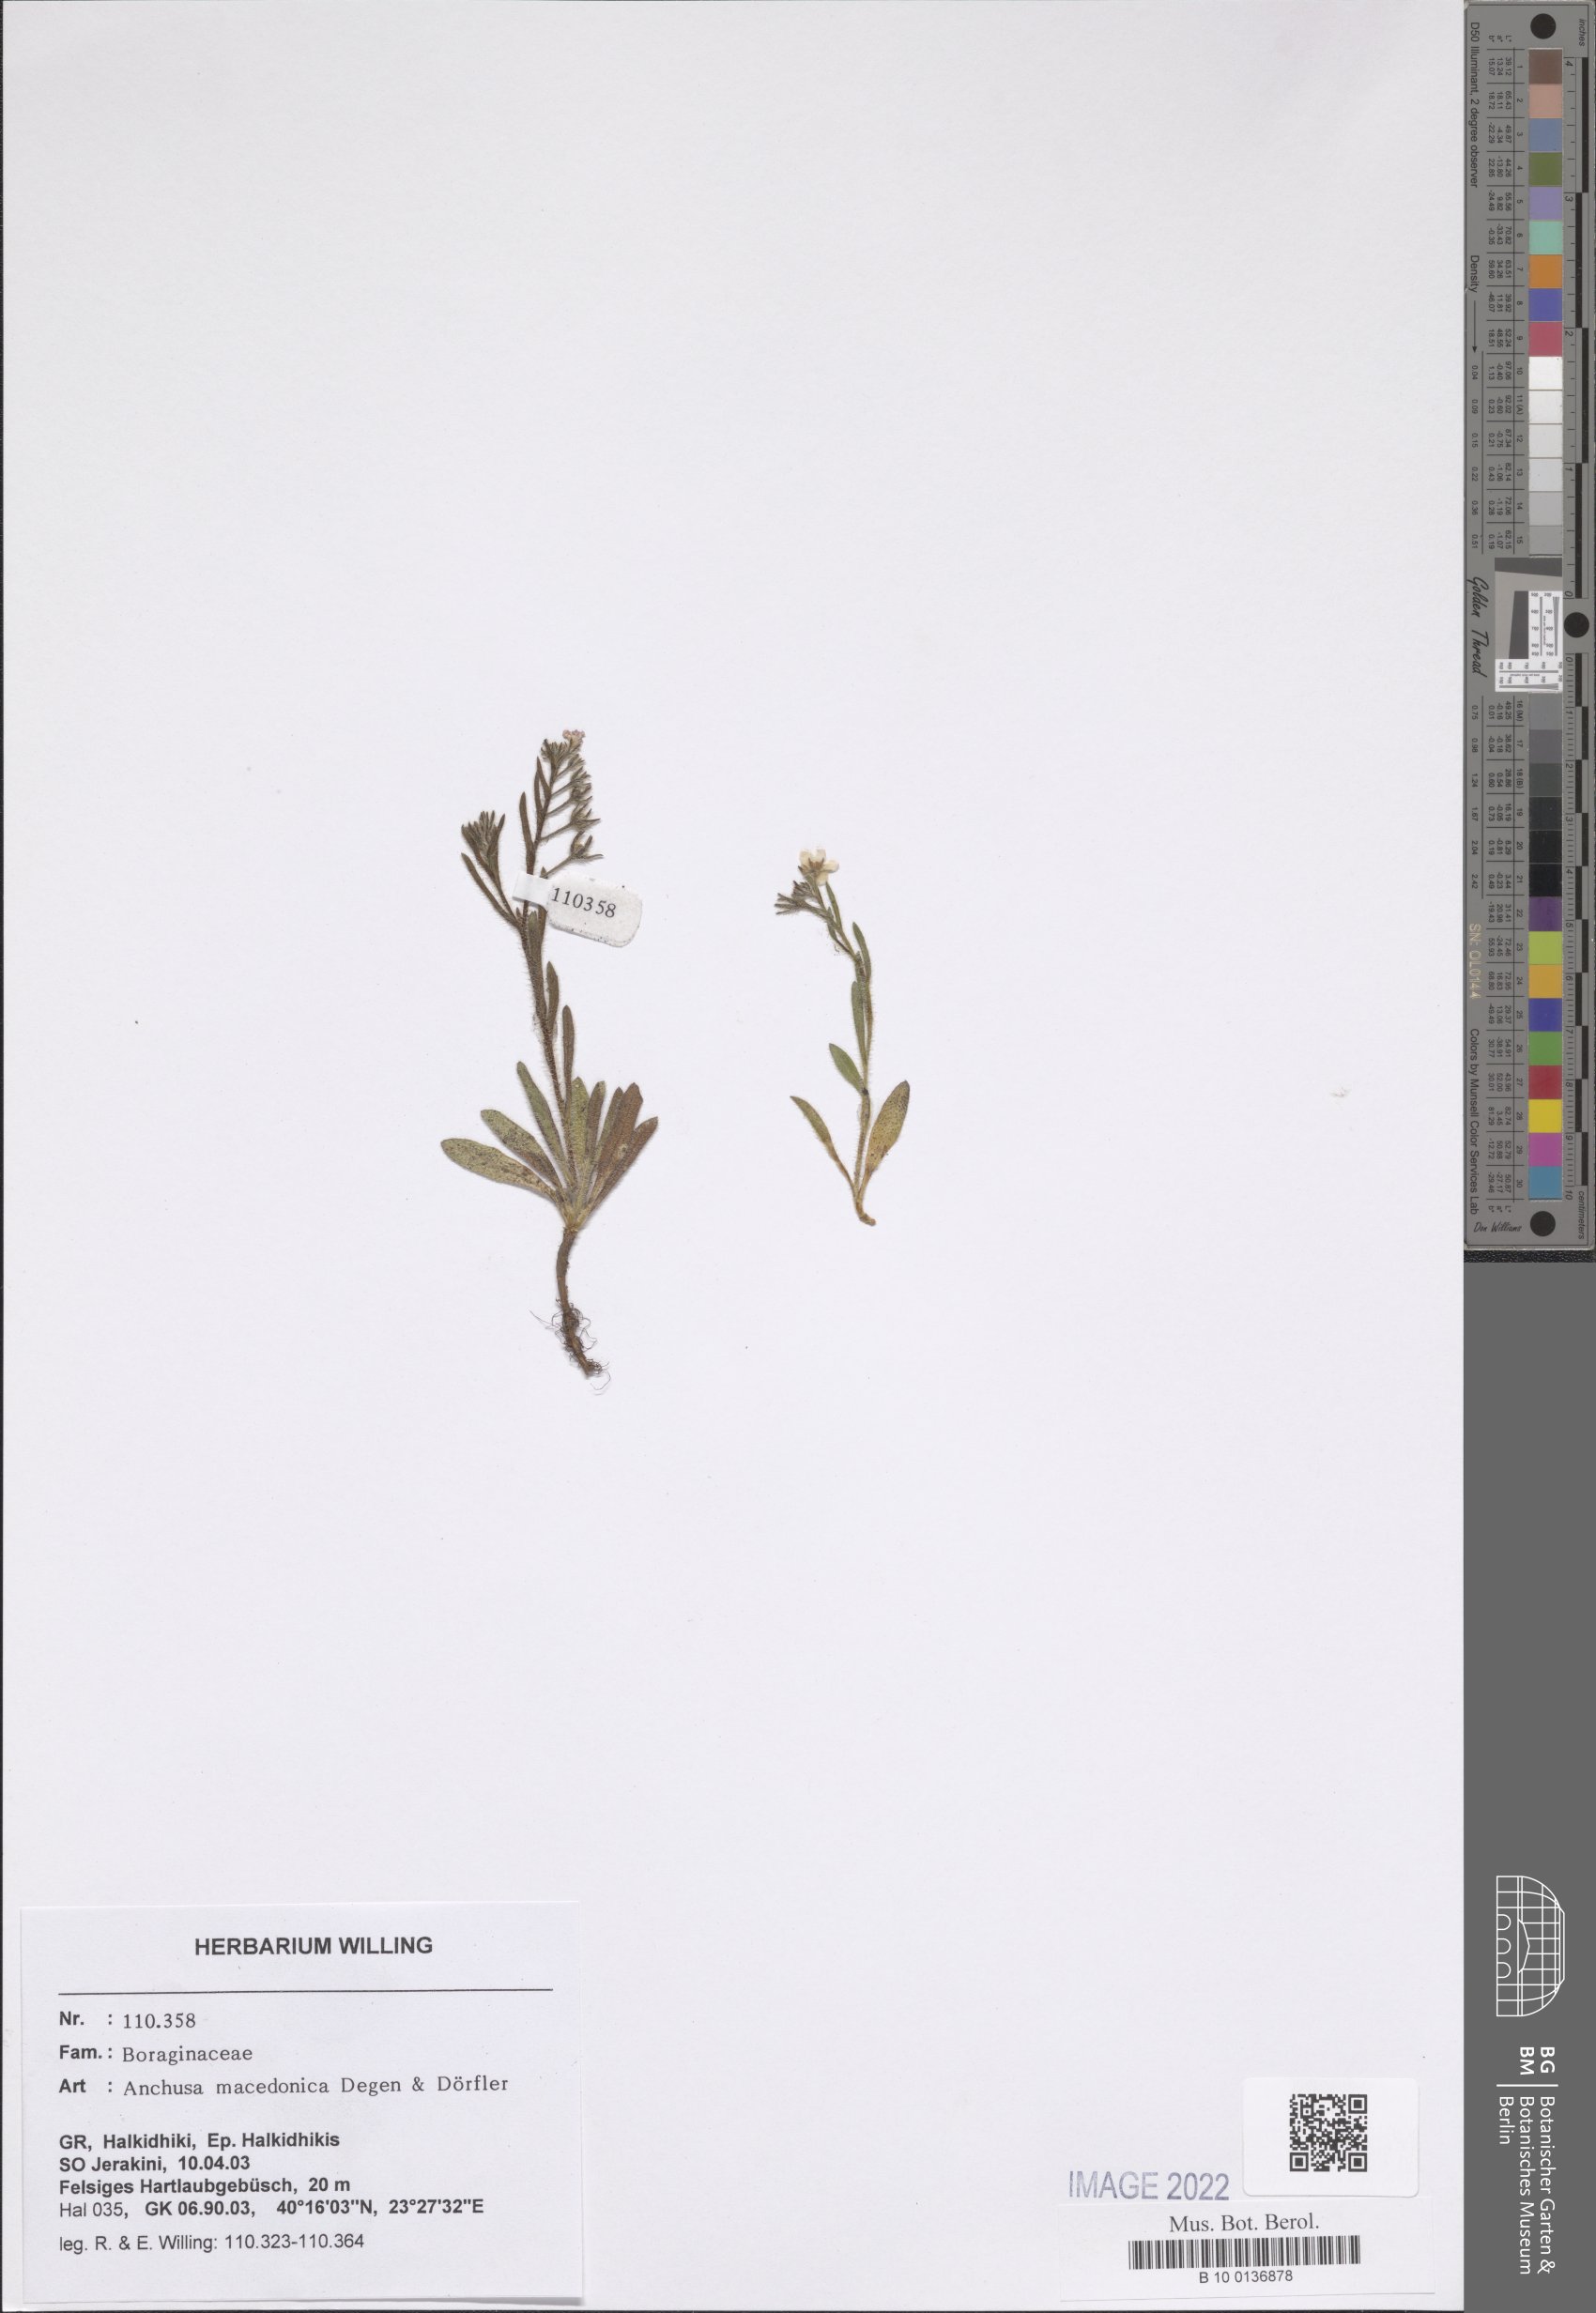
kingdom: Plantae
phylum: Tracheophyta
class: Magnoliopsida
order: Boraginales
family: Boraginaceae
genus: Anchusa
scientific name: Anchusa officinalis
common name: Alkanet
